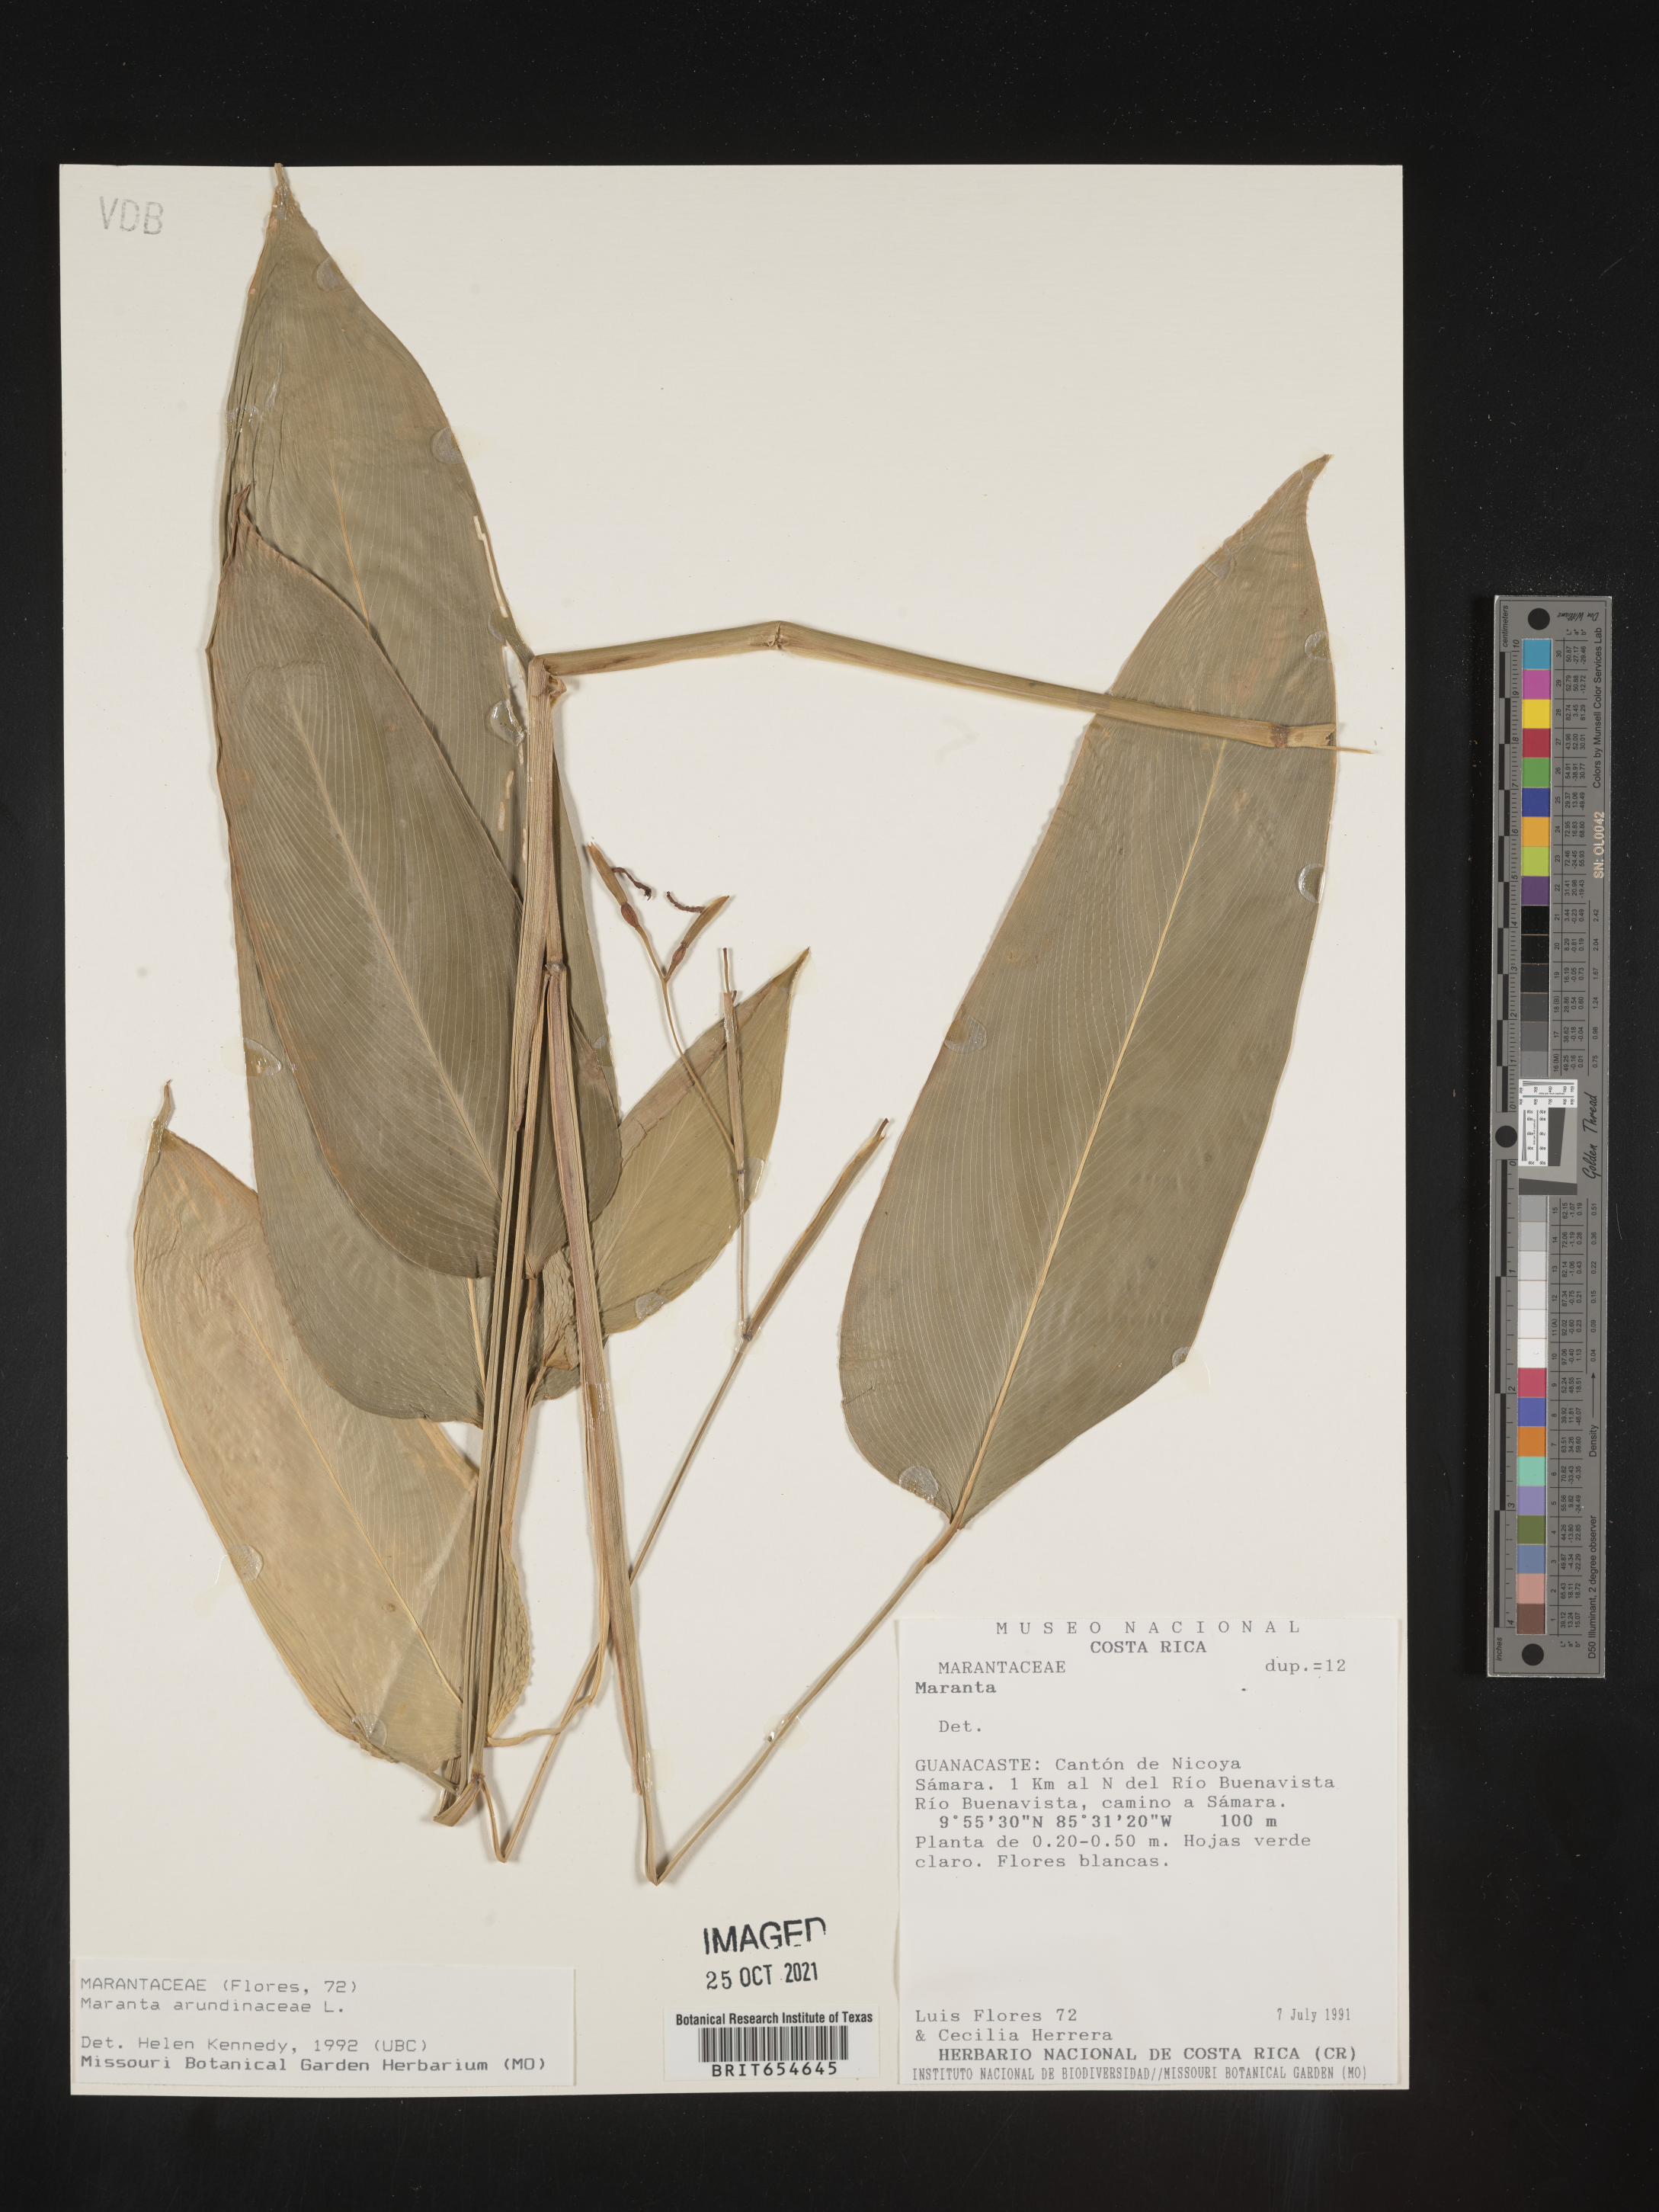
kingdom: Plantae
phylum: Tracheophyta
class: Liliopsida
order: Zingiberales
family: Marantaceae
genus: Maranta
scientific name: Maranta
